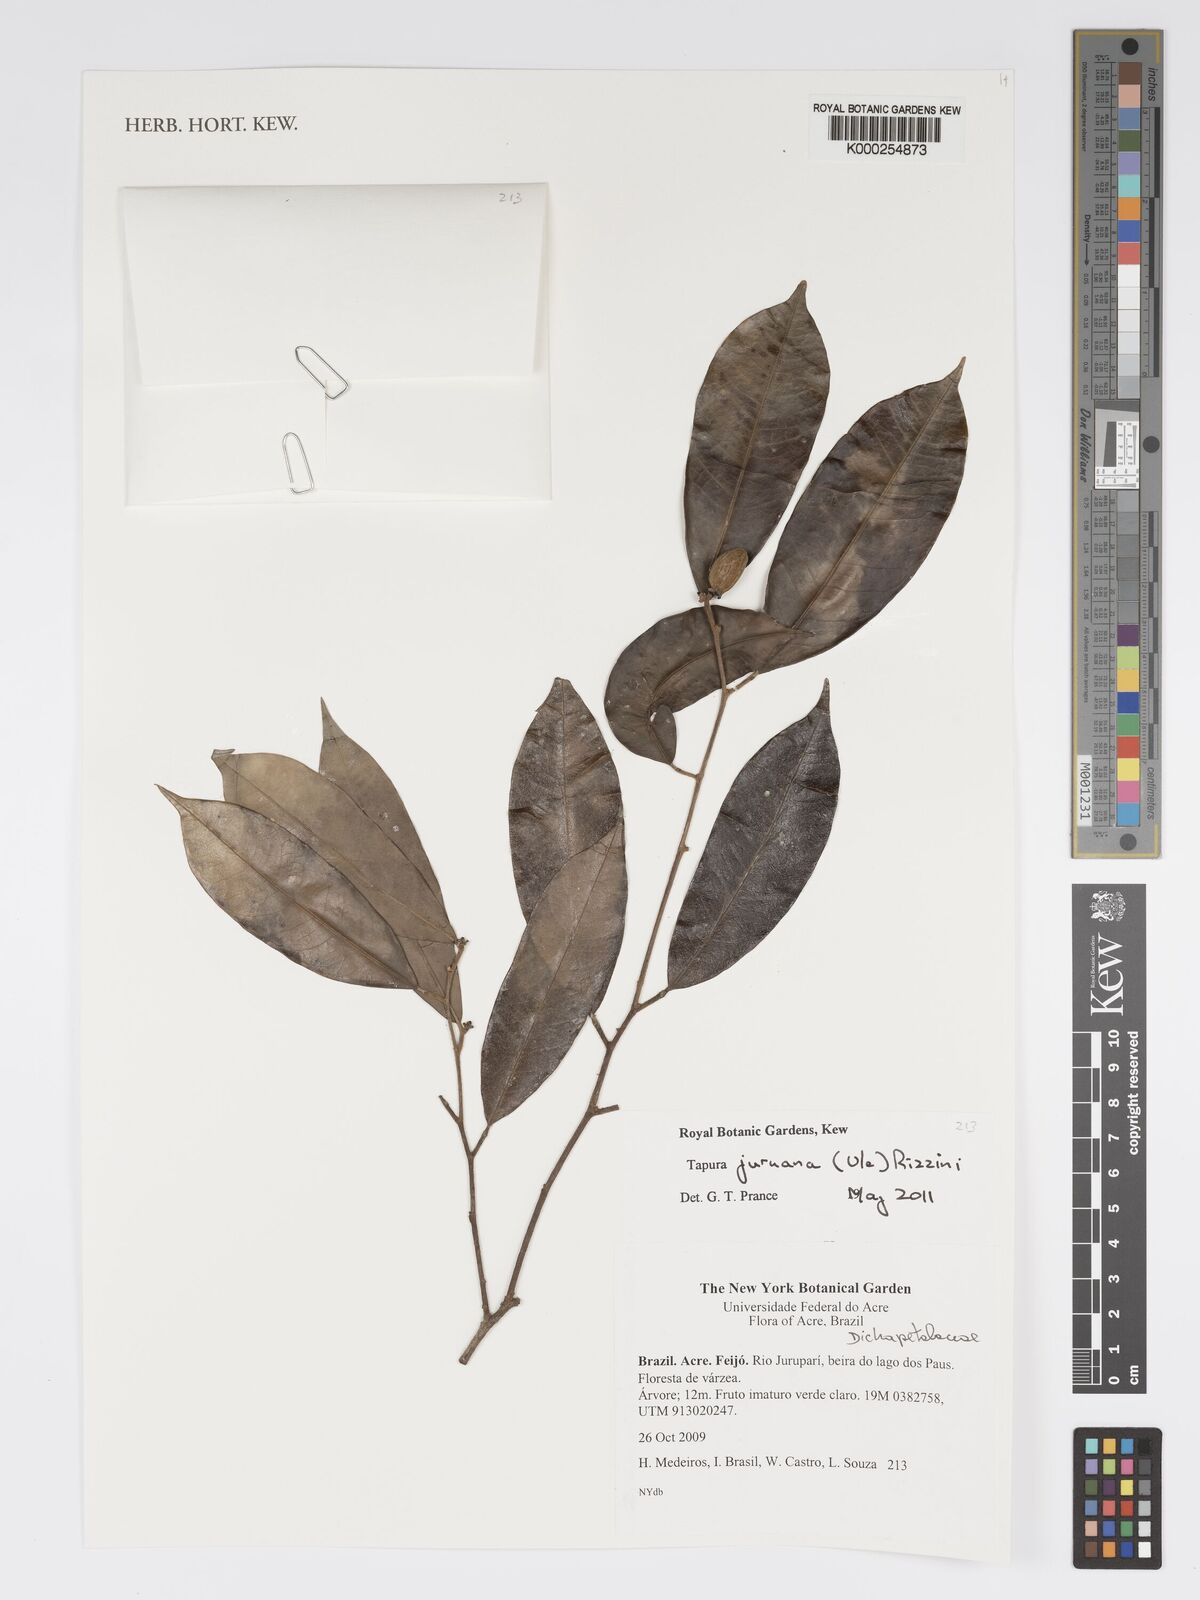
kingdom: Plantae
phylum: Tracheophyta
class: Magnoliopsida
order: Malpighiales
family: Dichapetalaceae
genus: Tapura
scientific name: Tapura juruana
